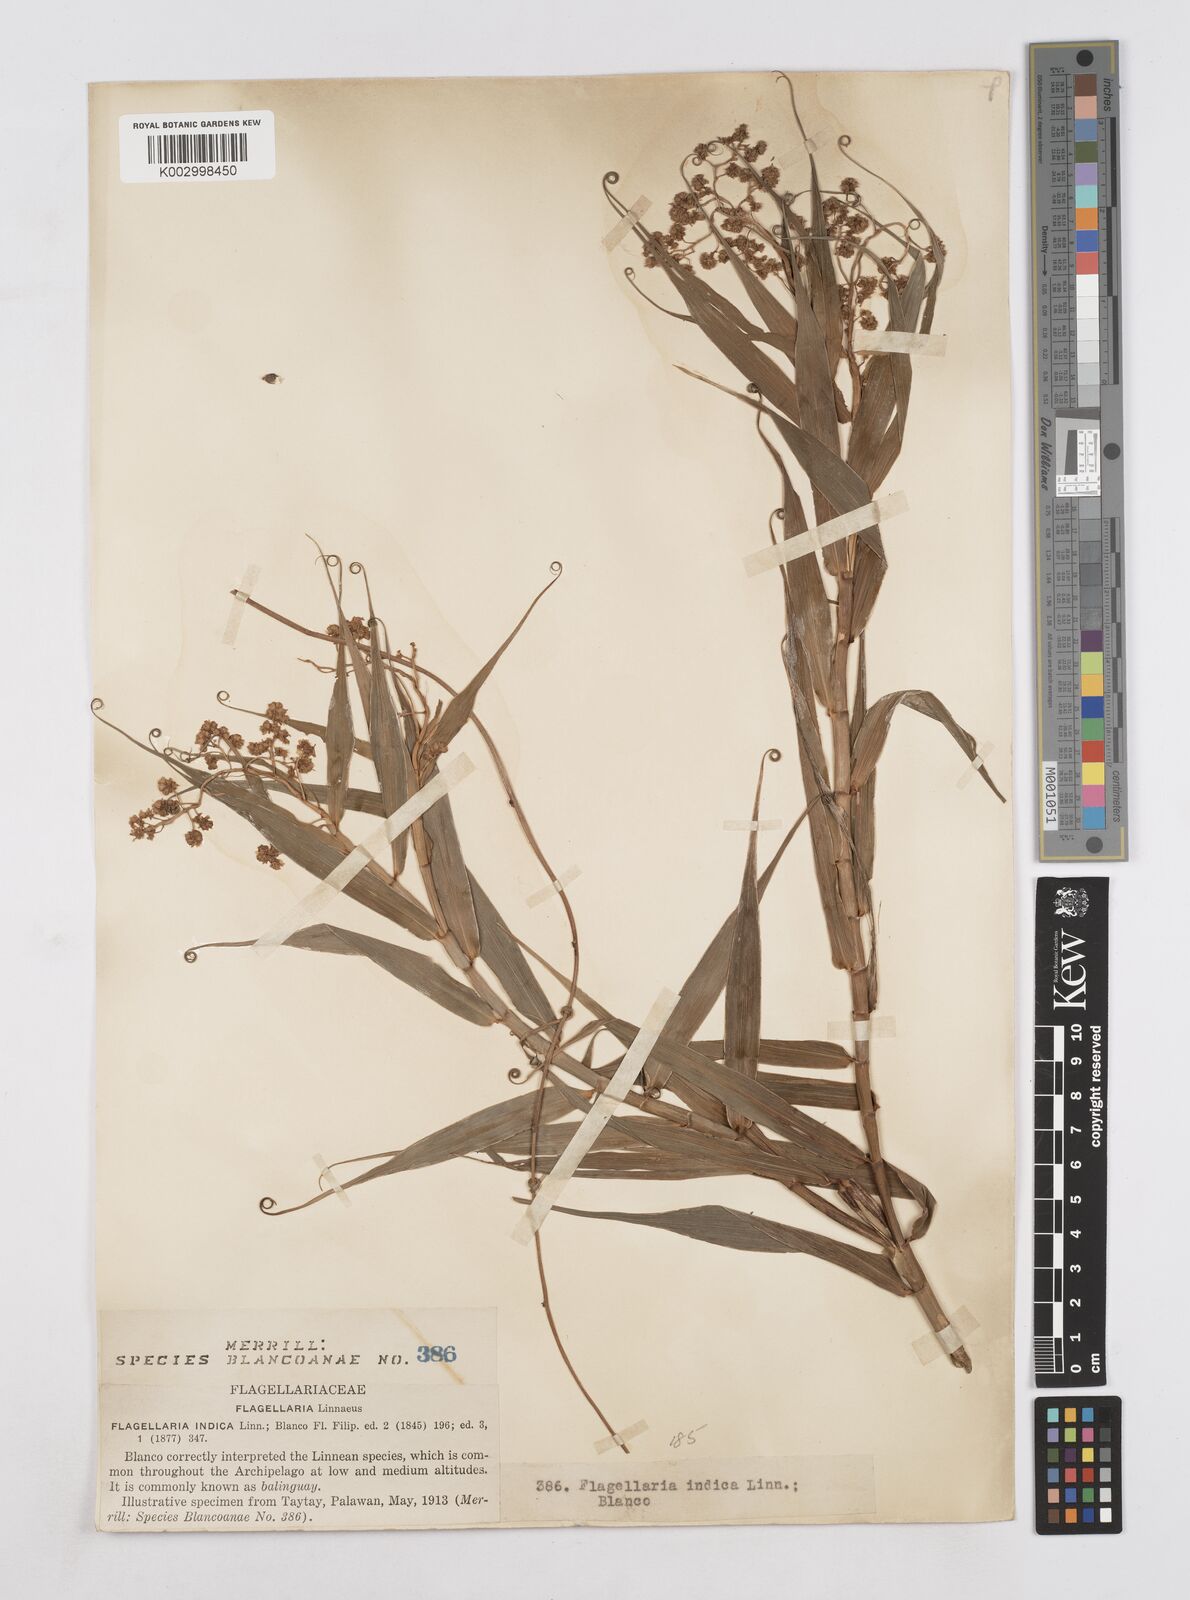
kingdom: Plantae
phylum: Tracheophyta
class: Liliopsida
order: Poales
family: Flagellariaceae
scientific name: Flagellariaceae
